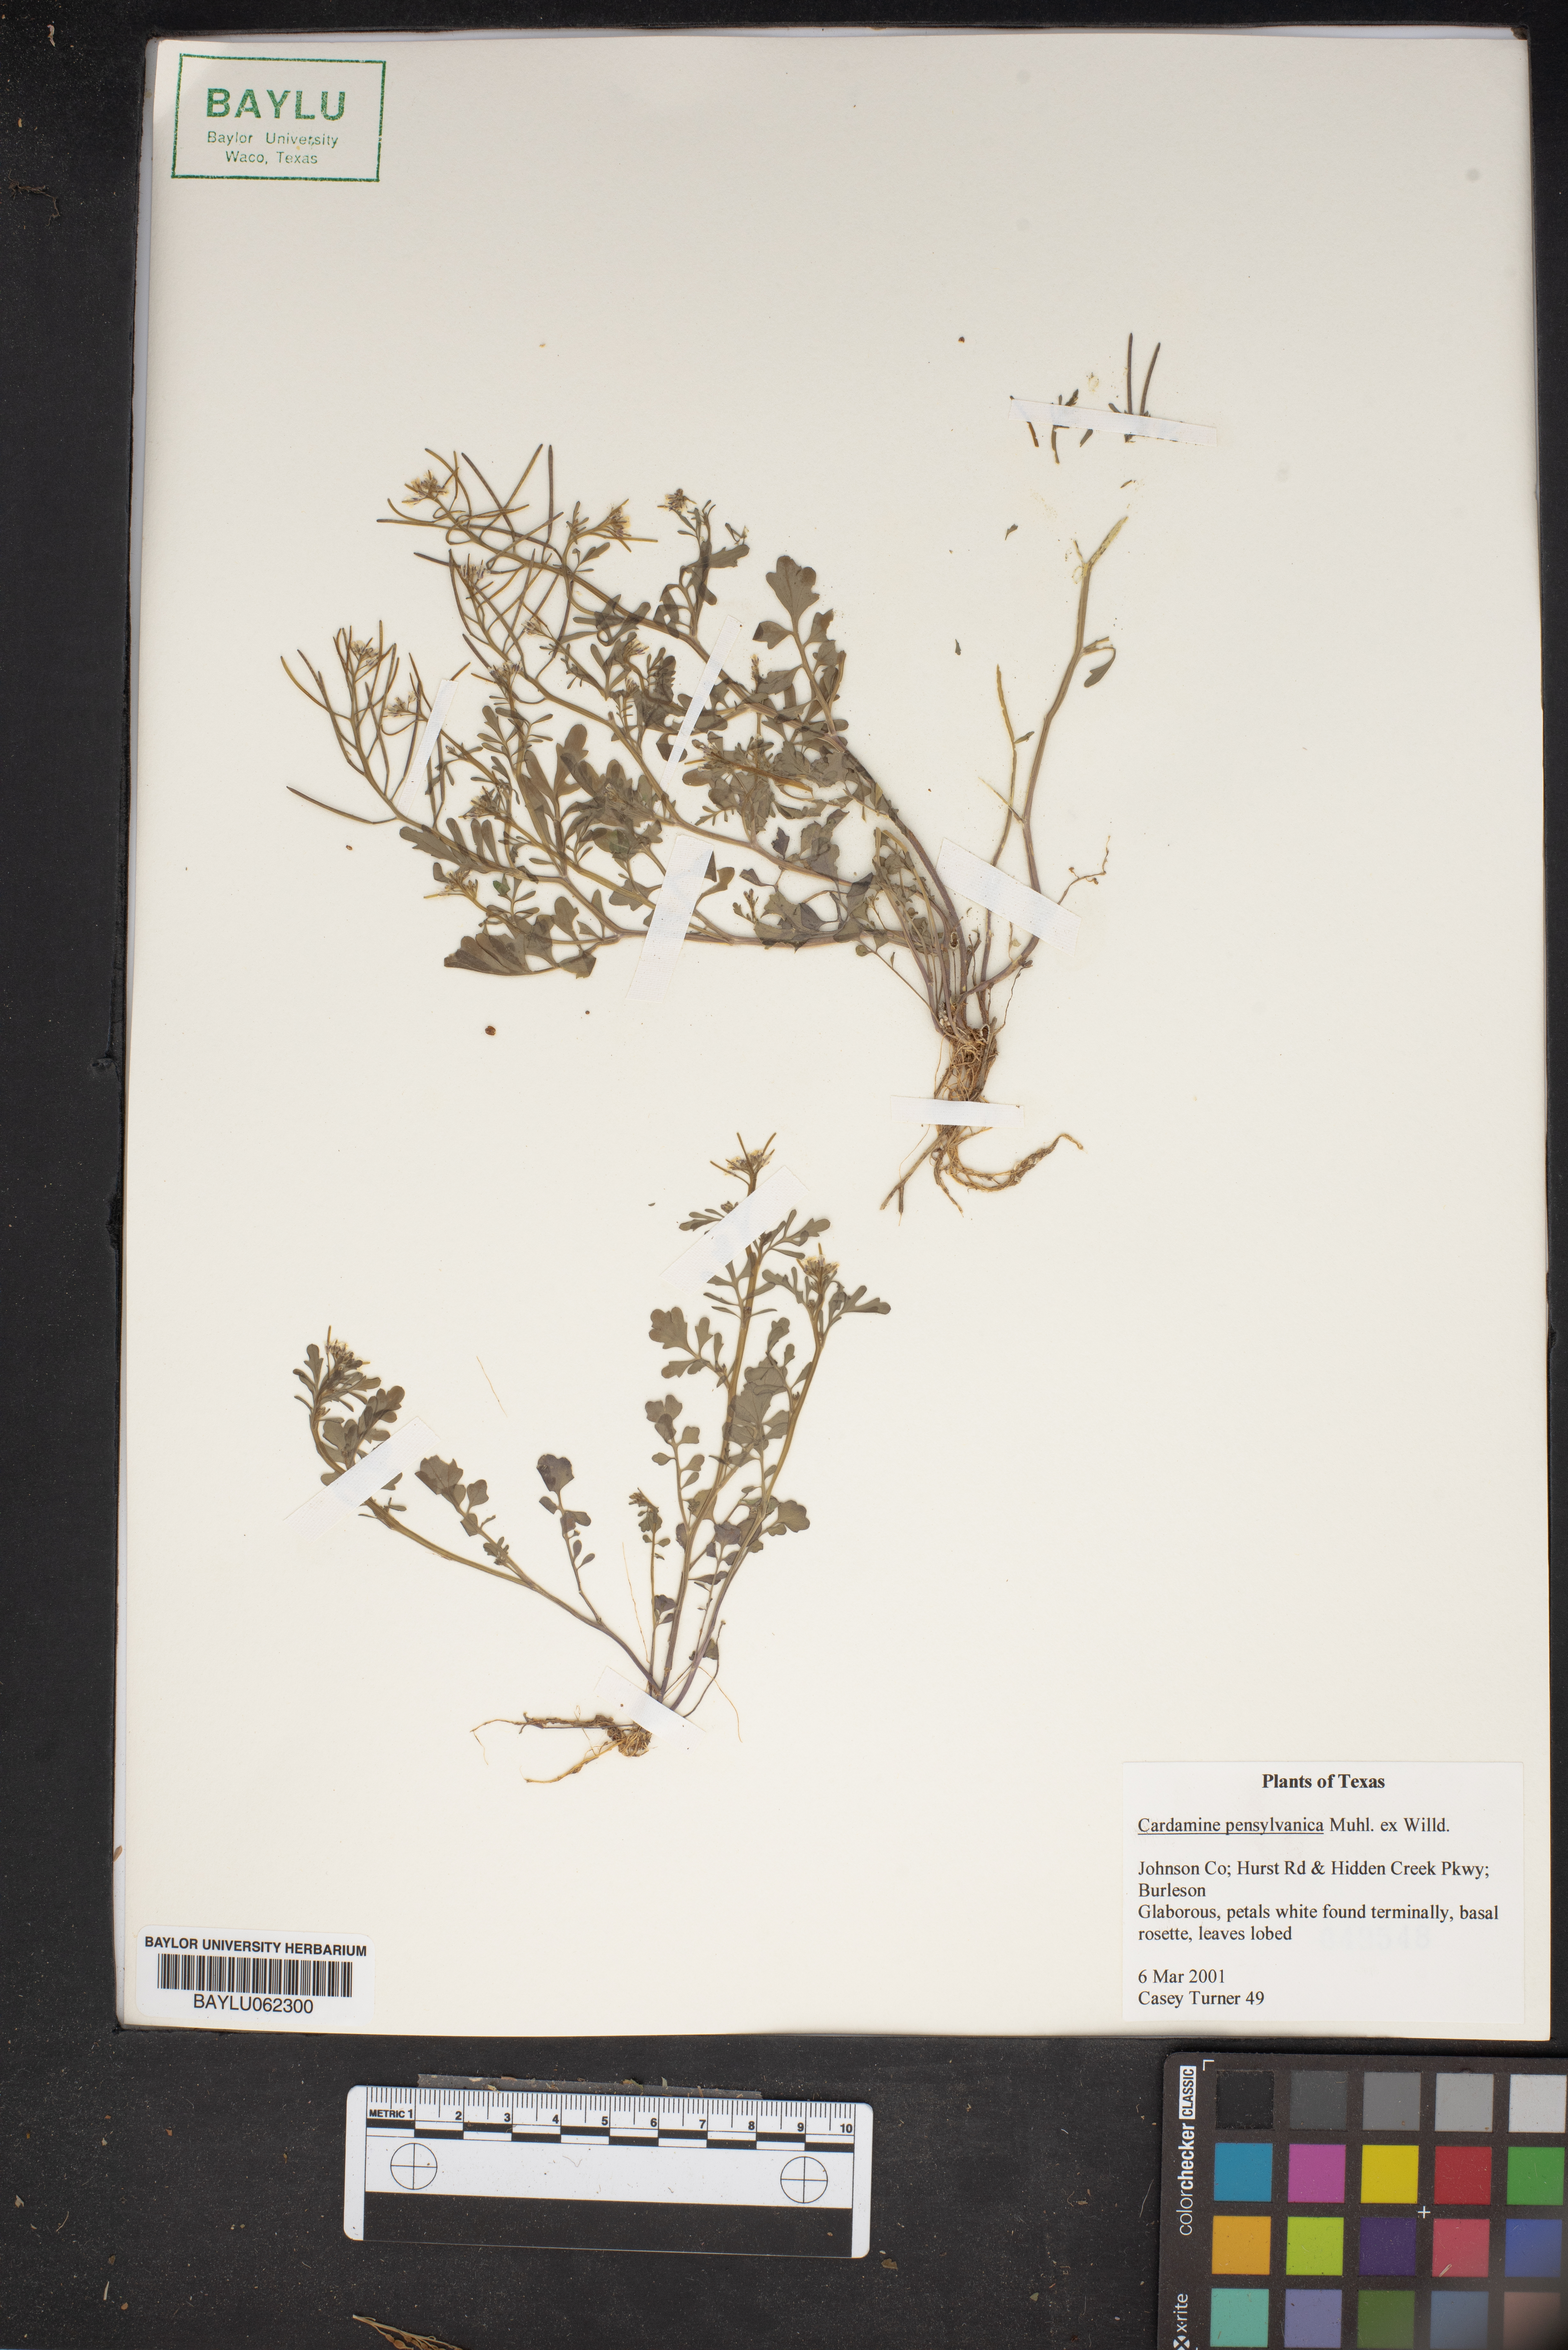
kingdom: Plantae
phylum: Tracheophyta
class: Magnoliopsida
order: Brassicales
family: Brassicaceae
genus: Cardamine
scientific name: Cardamine pensylvanica
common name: Pennsylvania bittercress
